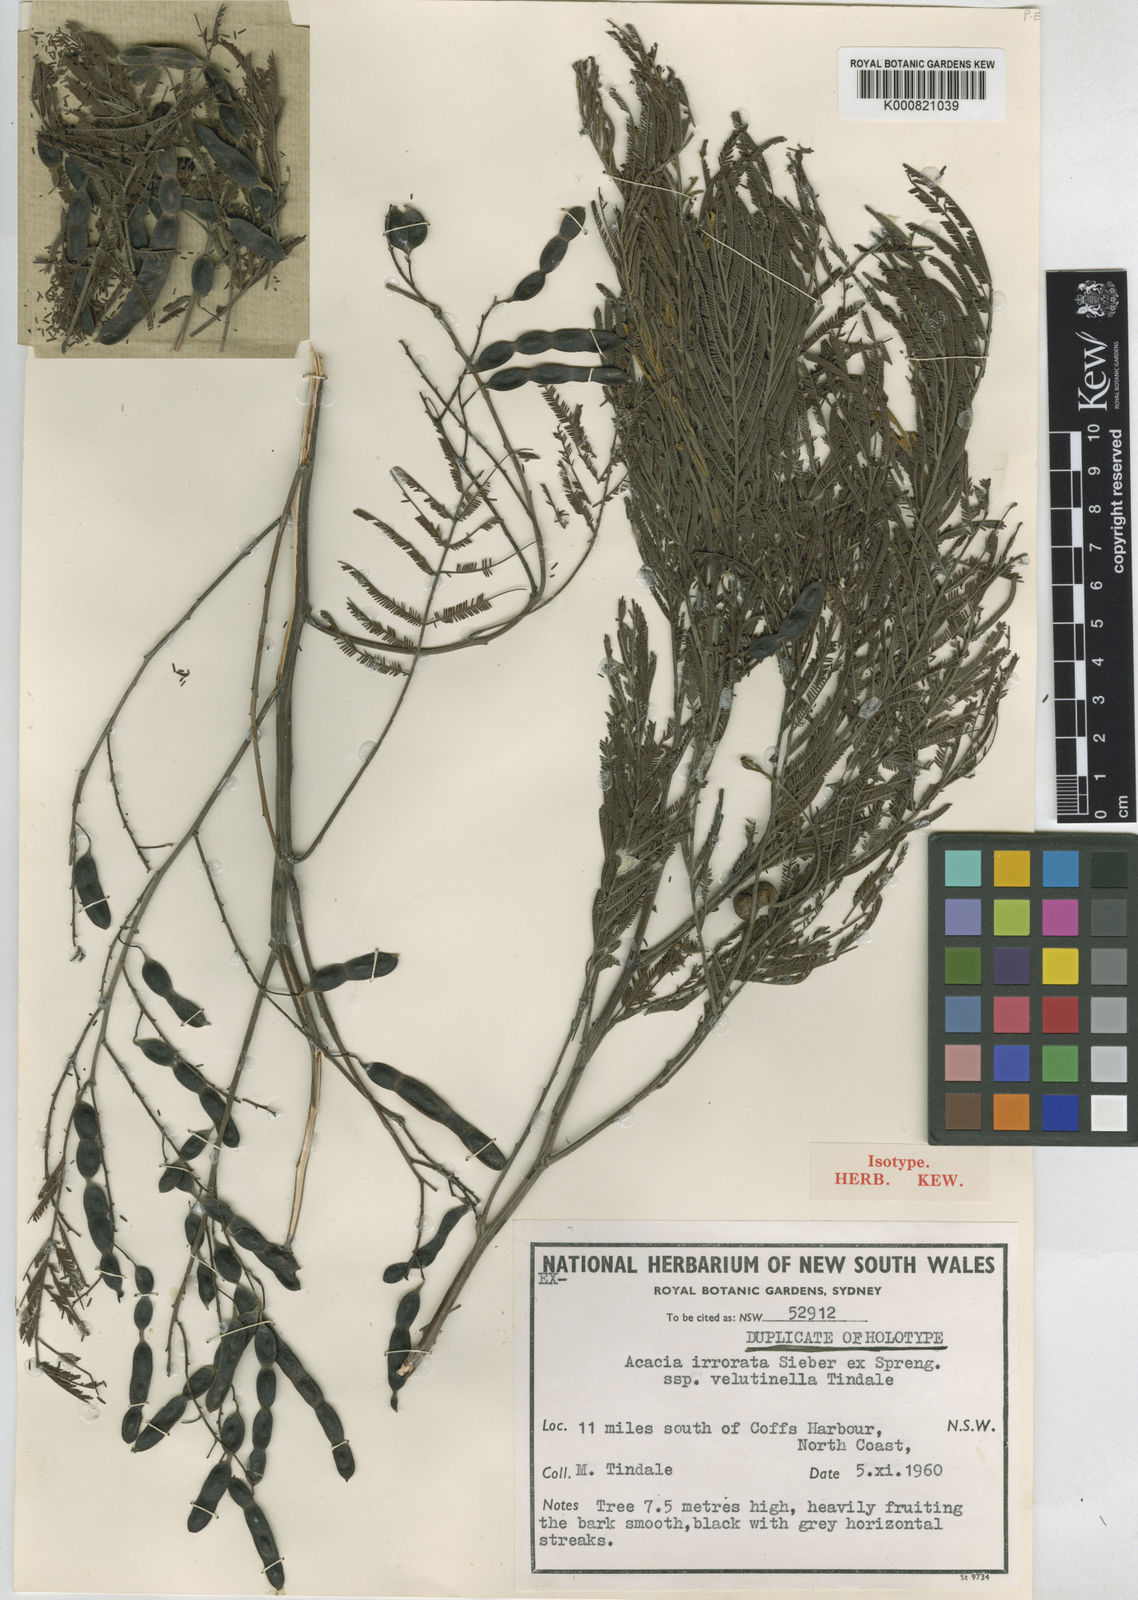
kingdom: Plantae
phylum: Tracheophyta
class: Magnoliopsida
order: Fabales
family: Fabaceae
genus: Acacia
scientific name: Acacia irrorata
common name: Green wattle
